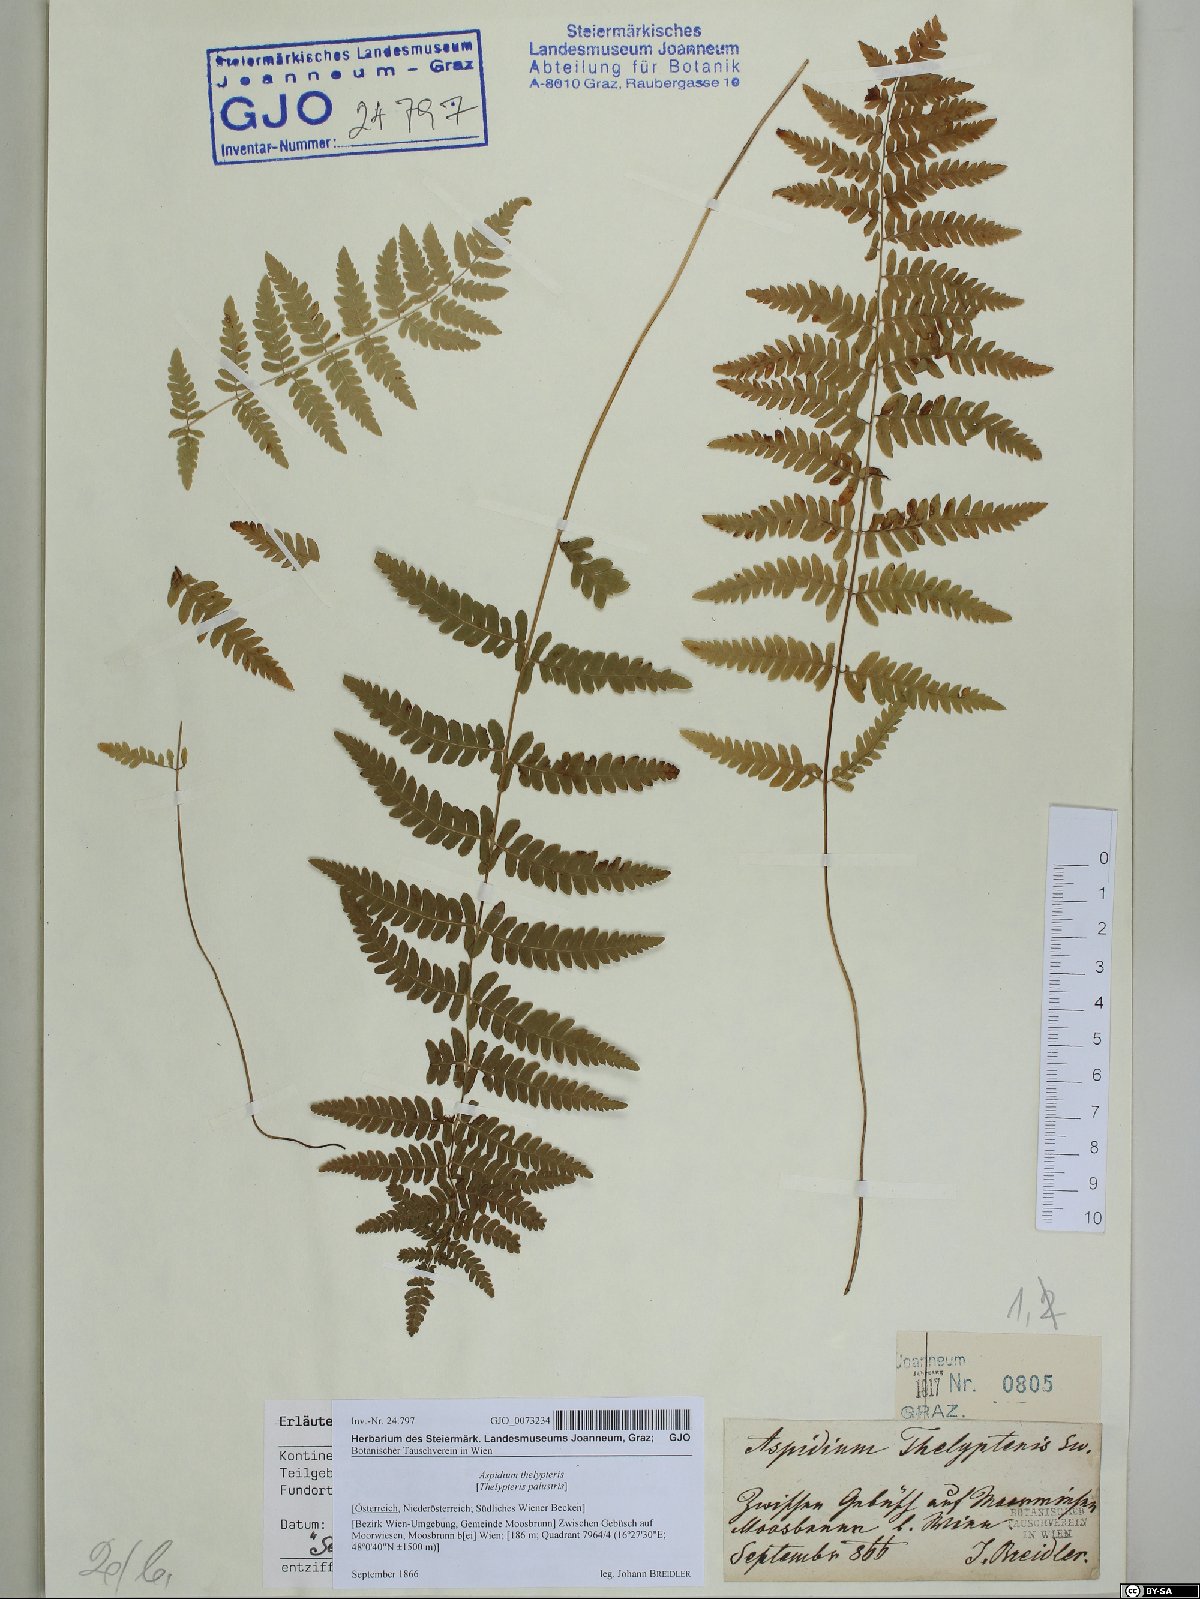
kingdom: Plantae
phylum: Tracheophyta
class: Polypodiopsida
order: Polypodiales
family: Thelypteridaceae
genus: Thelypteris
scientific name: Thelypteris palustris
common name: Marsh fern
